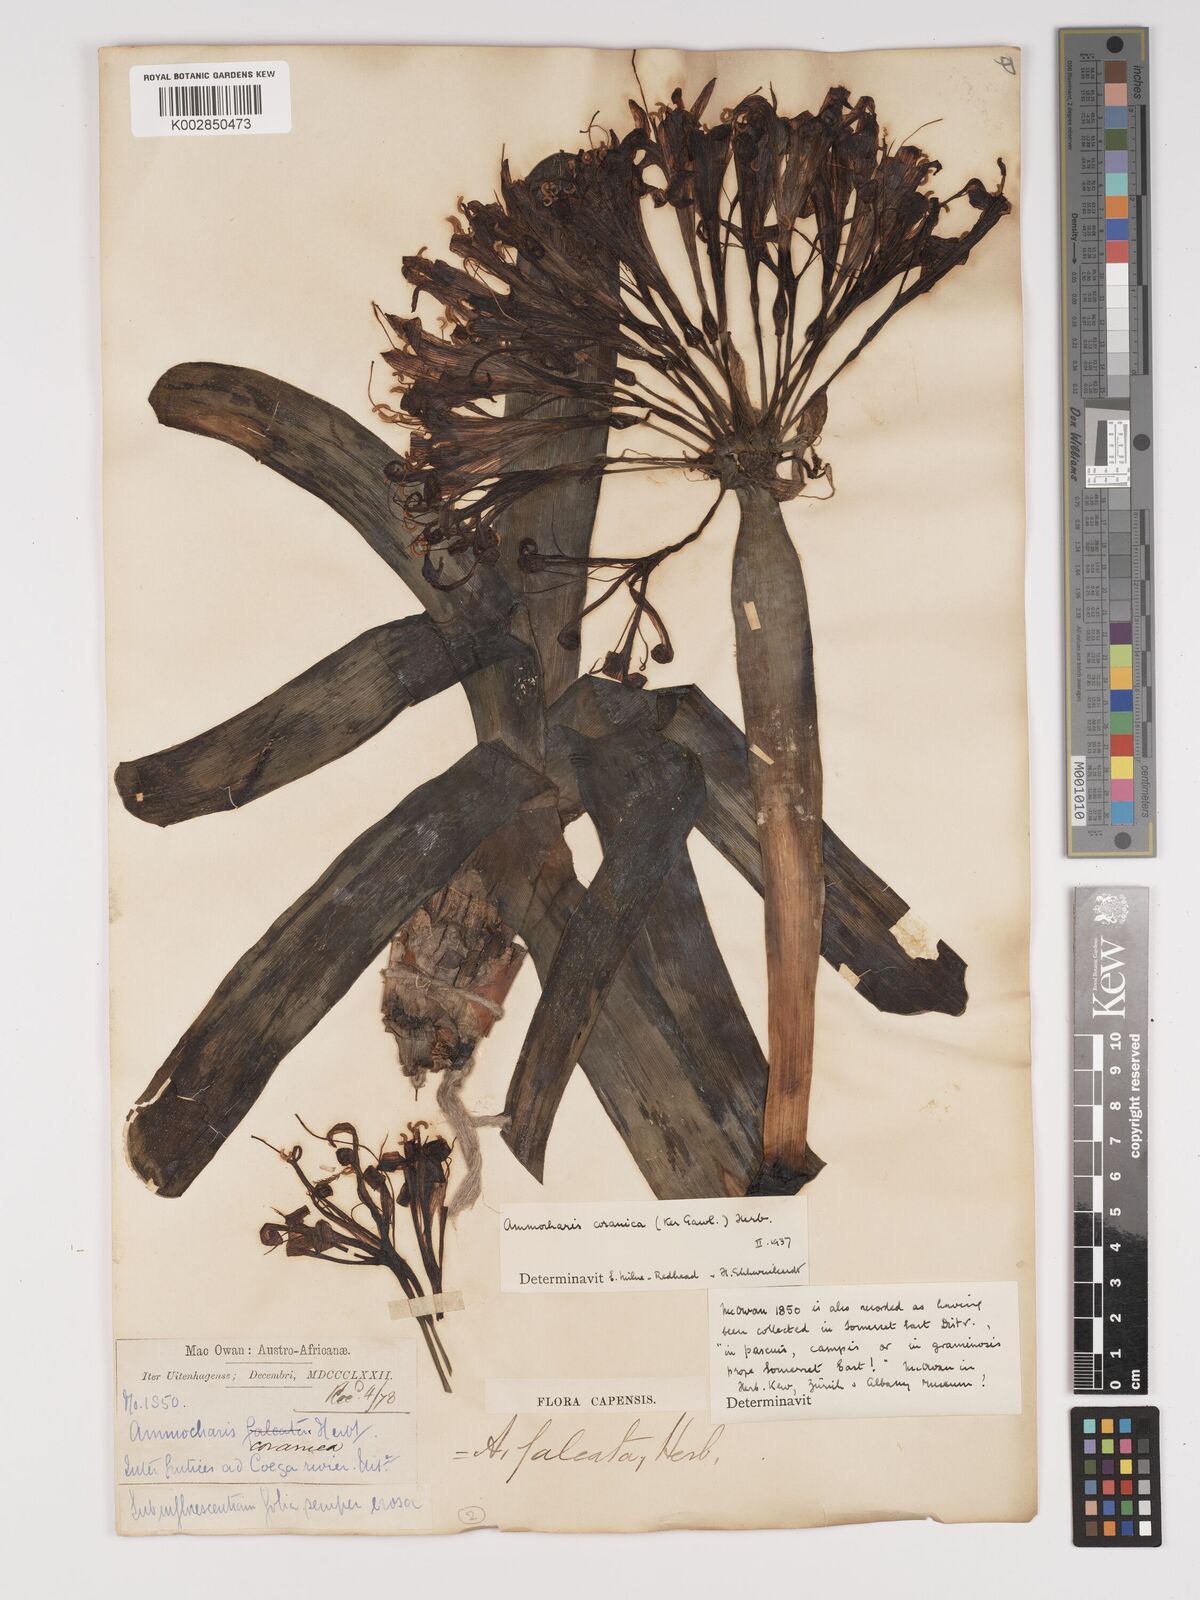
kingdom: Plantae
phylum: Tracheophyta
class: Liliopsida
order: Asparagales
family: Amaryllidaceae
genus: Ammocharis
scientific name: Ammocharis coranica
